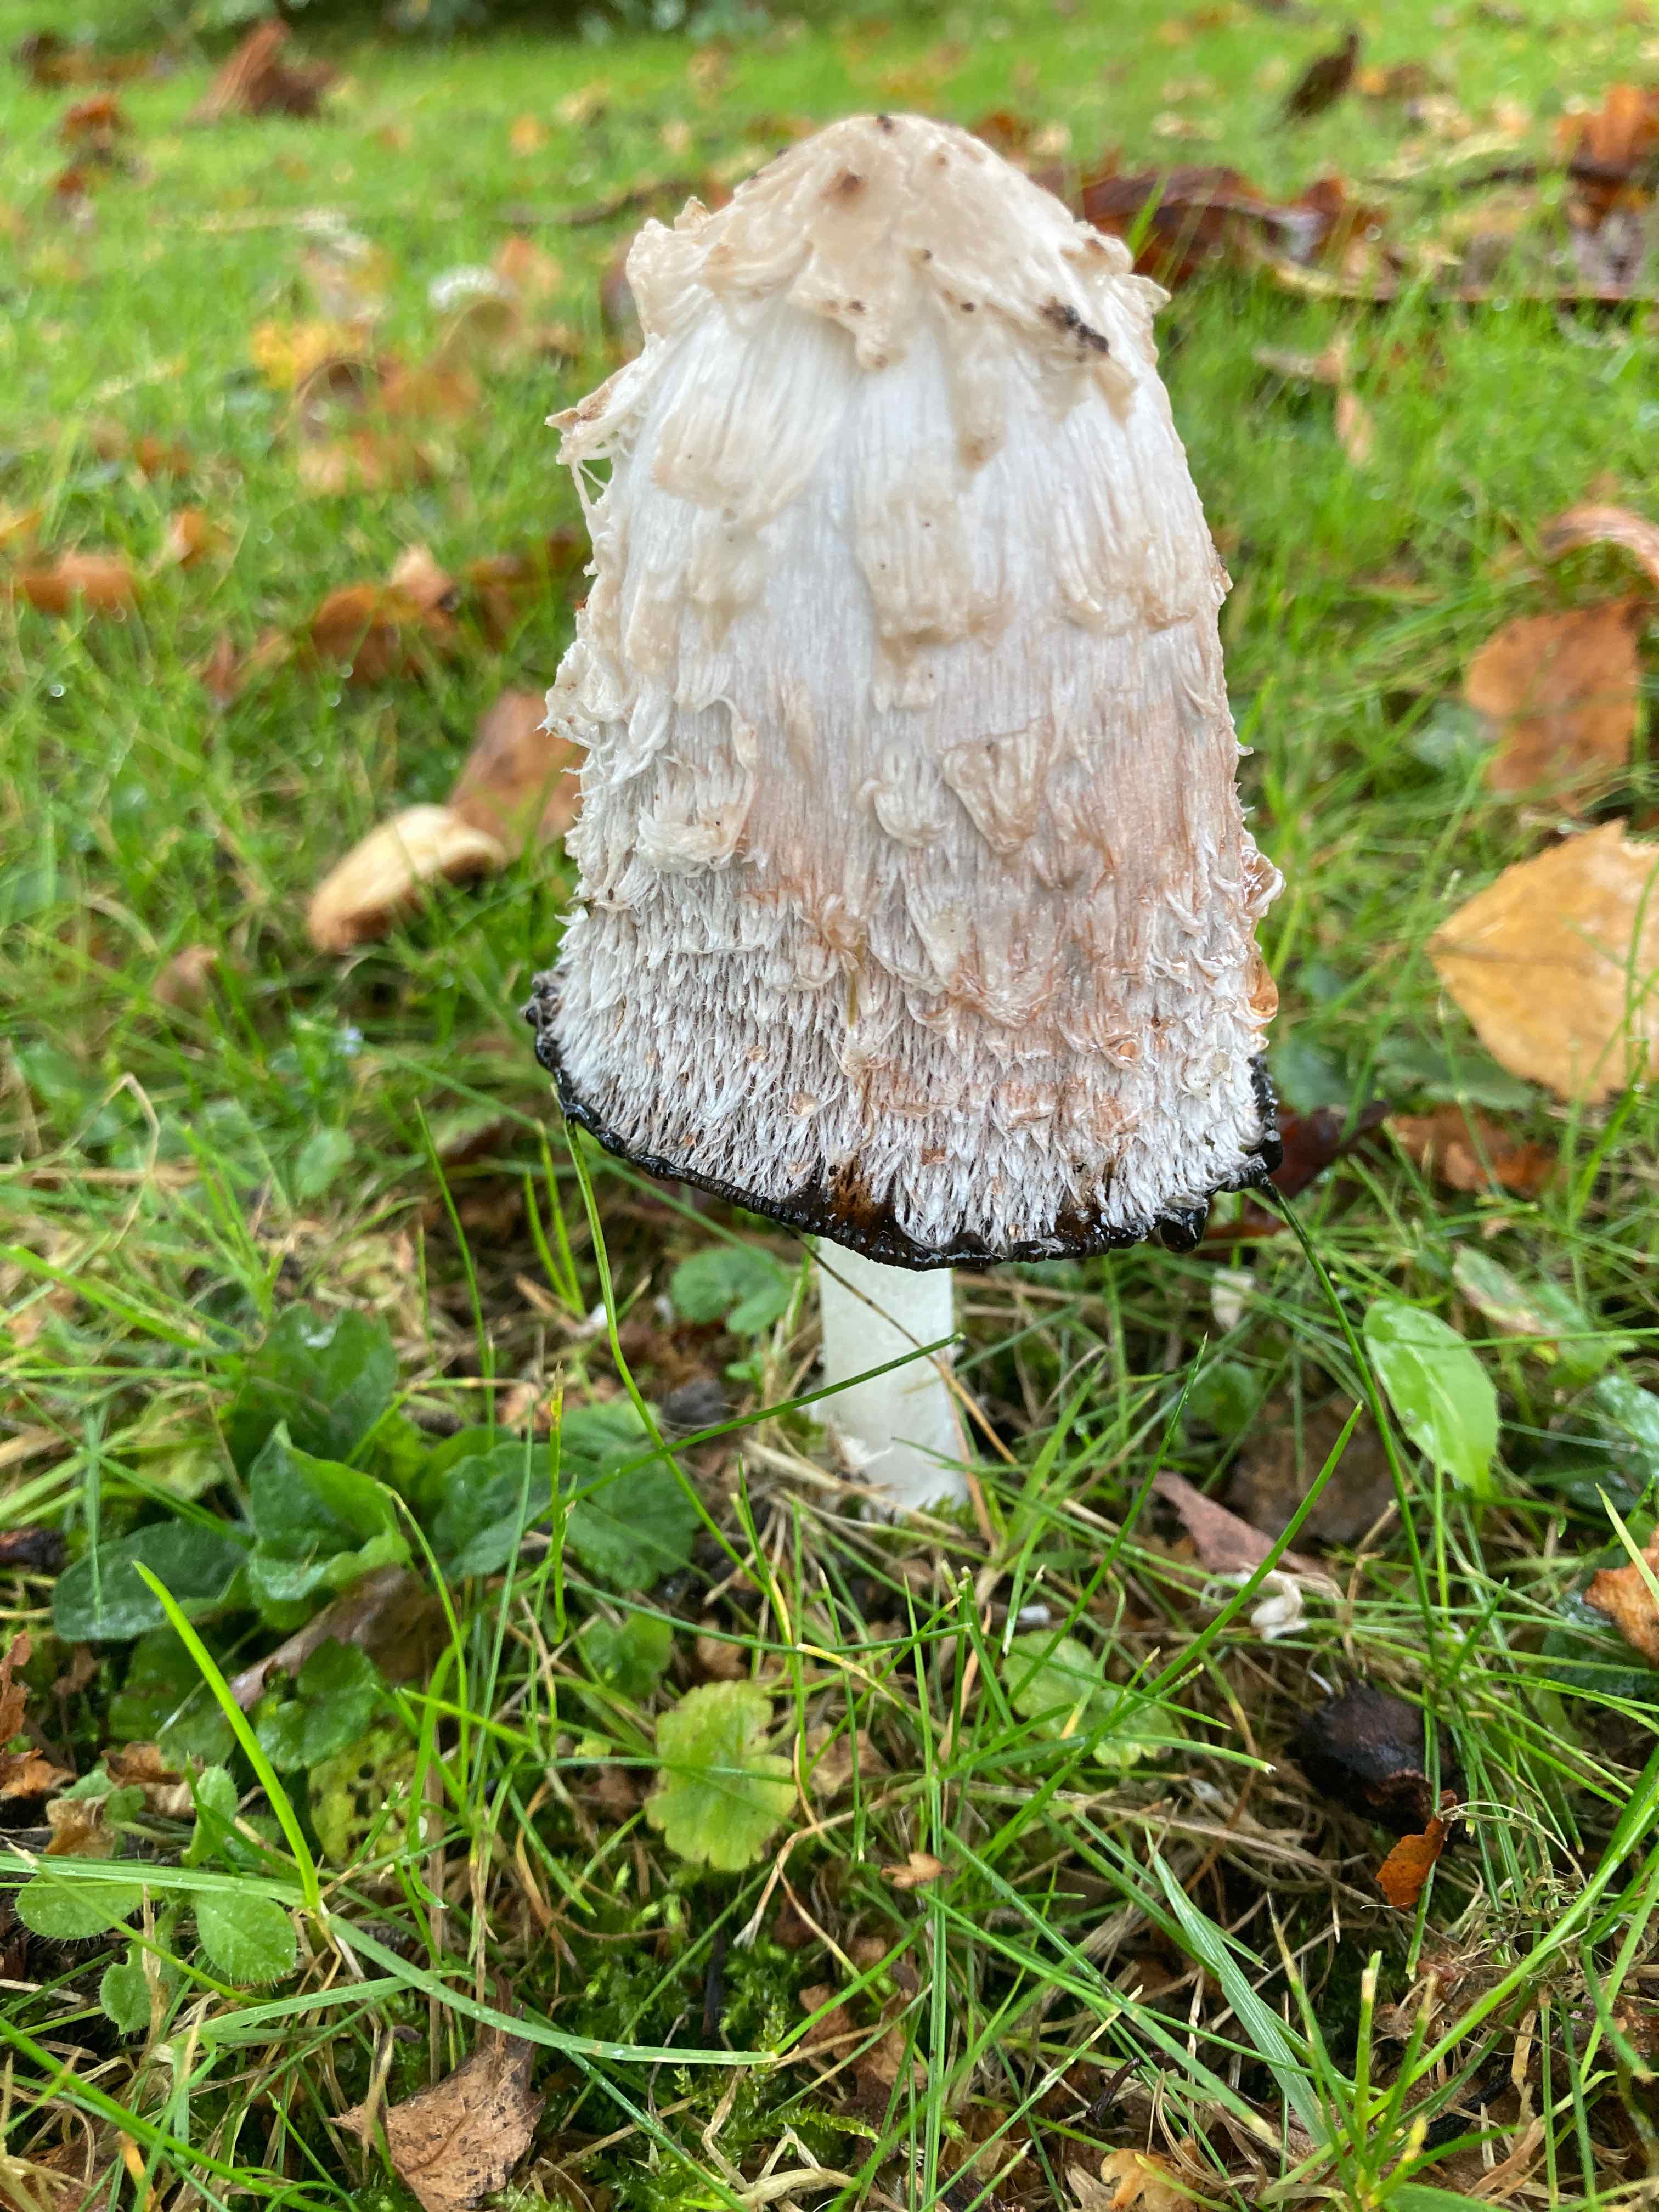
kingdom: Fungi
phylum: Basidiomycota
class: Agaricomycetes
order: Agaricales
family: Agaricaceae
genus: Coprinus
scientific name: Coprinus comatus
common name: stor parykhat
